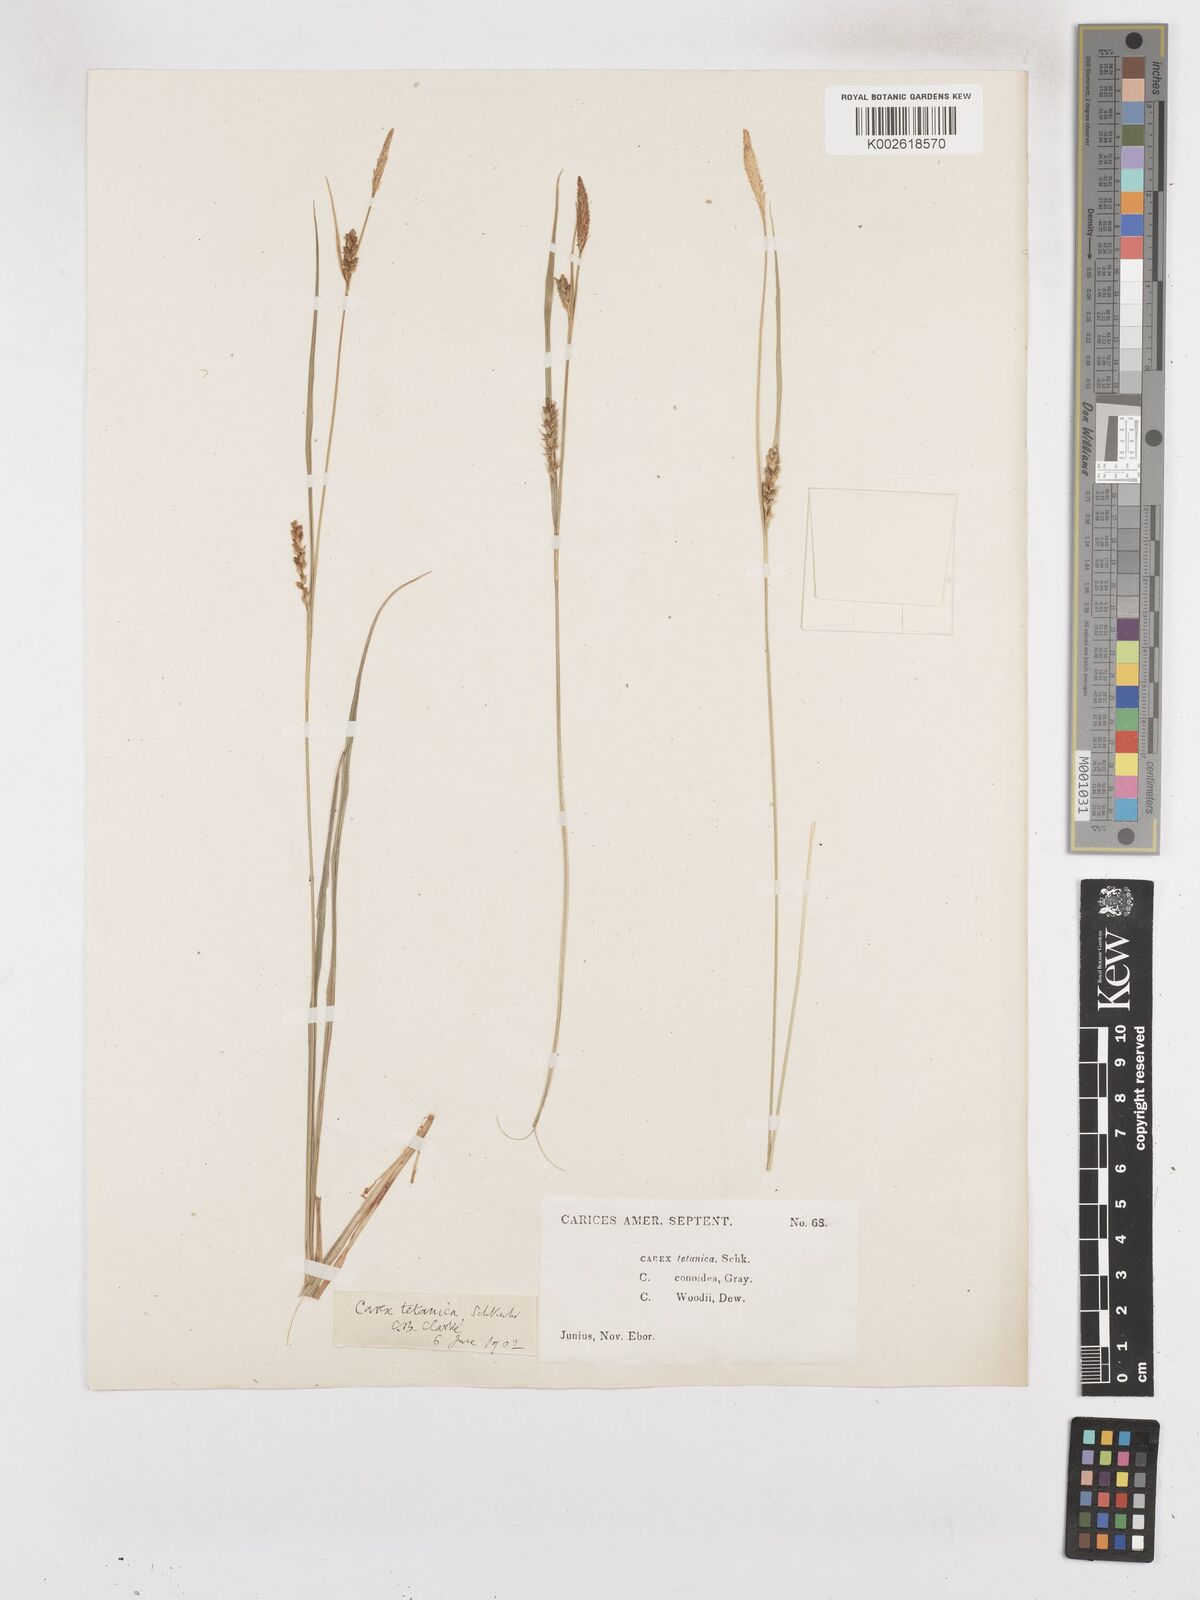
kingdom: Plantae
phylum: Tracheophyta
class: Liliopsida
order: Poales
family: Cyperaceae
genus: Carex
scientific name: Carex woodii
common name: Wood's sedge
